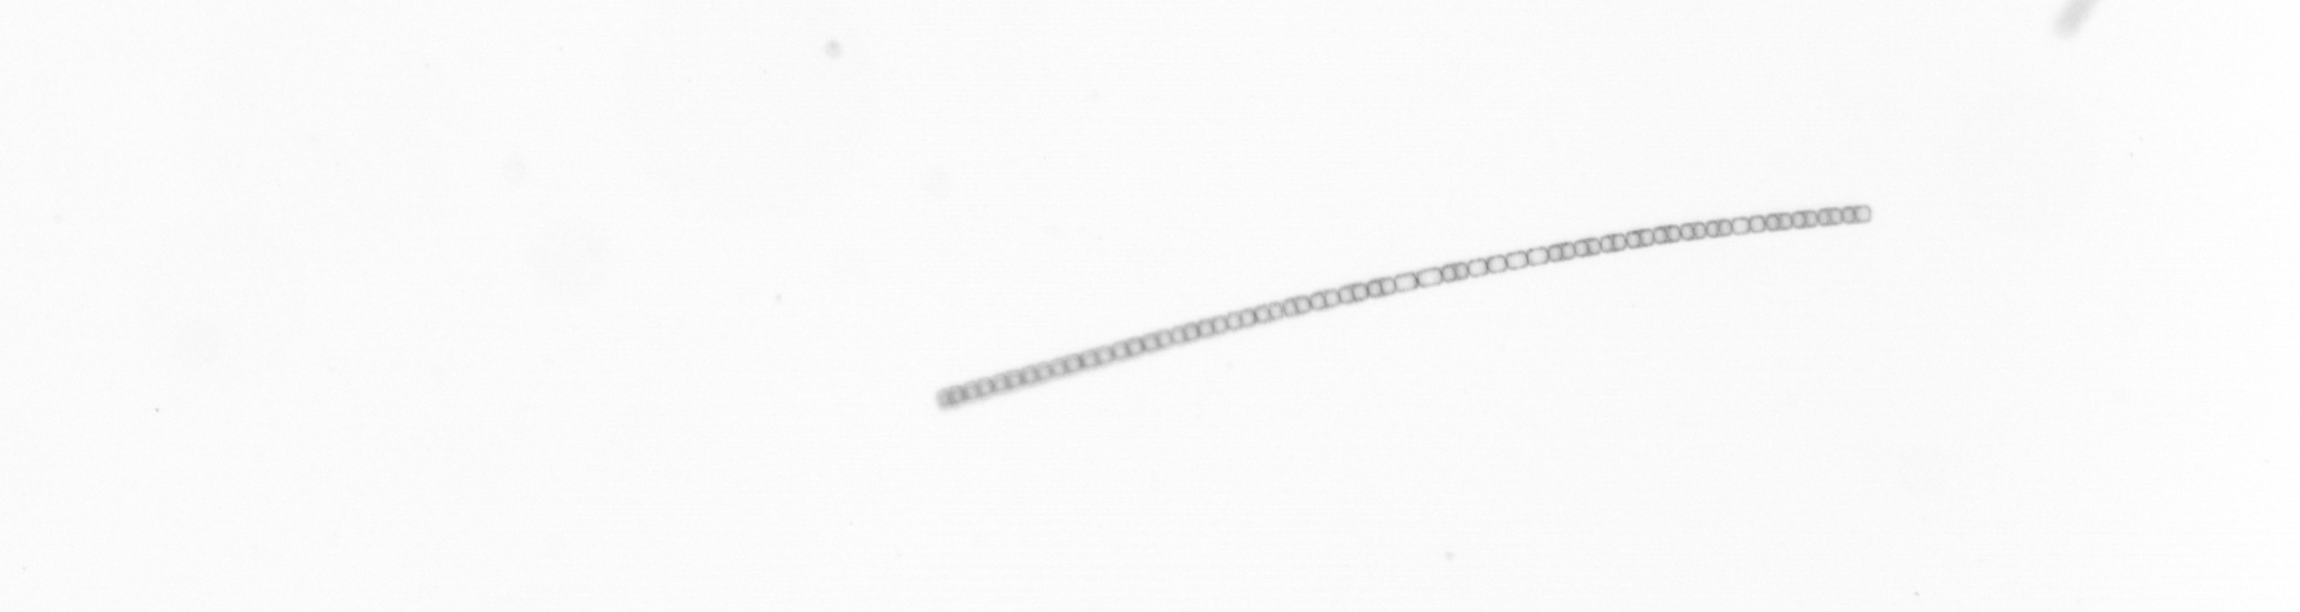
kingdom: Chromista
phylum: Ochrophyta
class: Bacillariophyceae
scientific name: Bacillariophyceae
